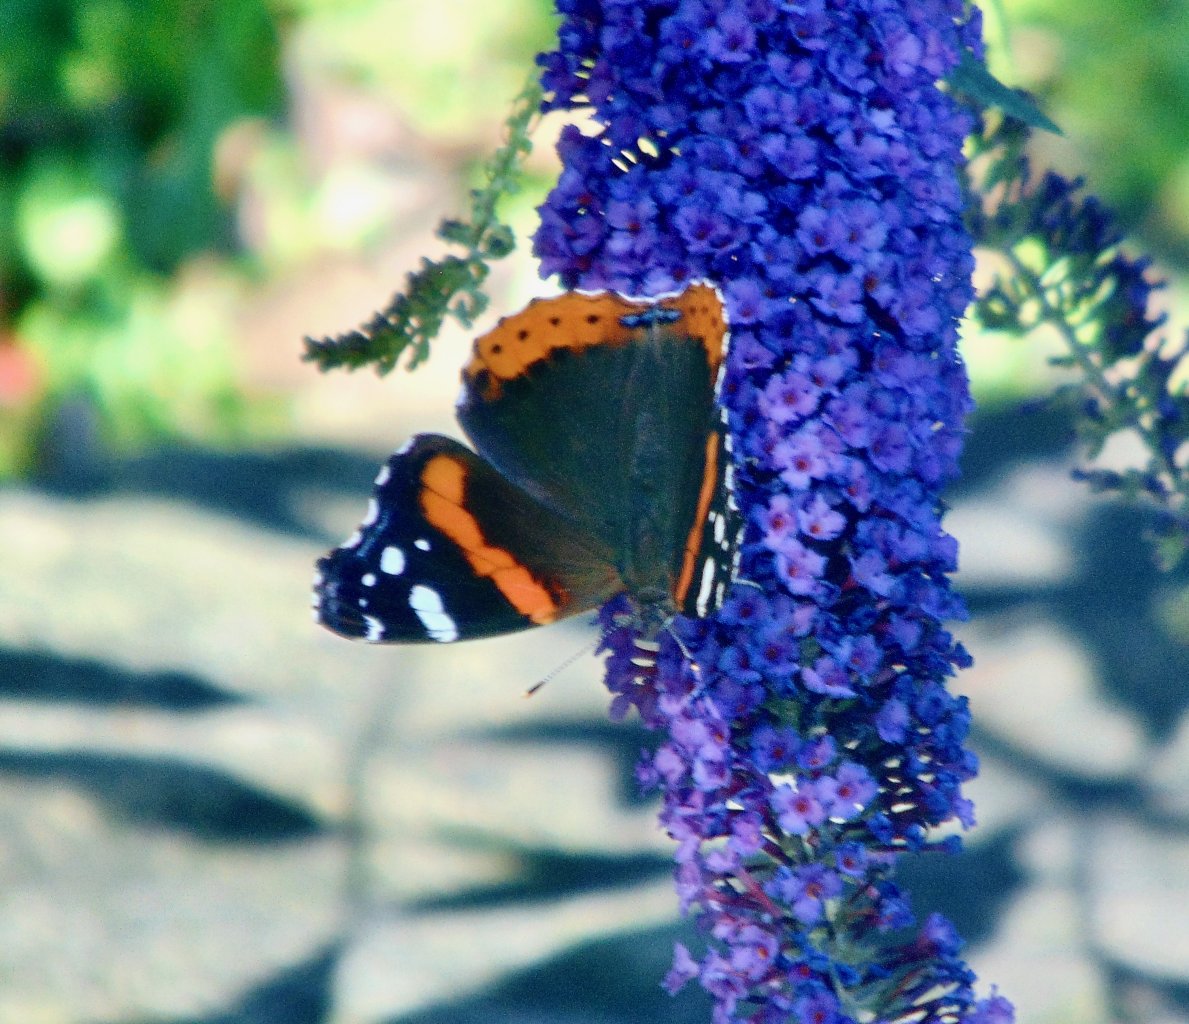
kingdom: Animalia
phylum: Arthropoda
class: Insecta
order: Lepidoptera
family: Nymphalidae
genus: Vanessa
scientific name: Vanessa atalanta
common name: Red Admiral
